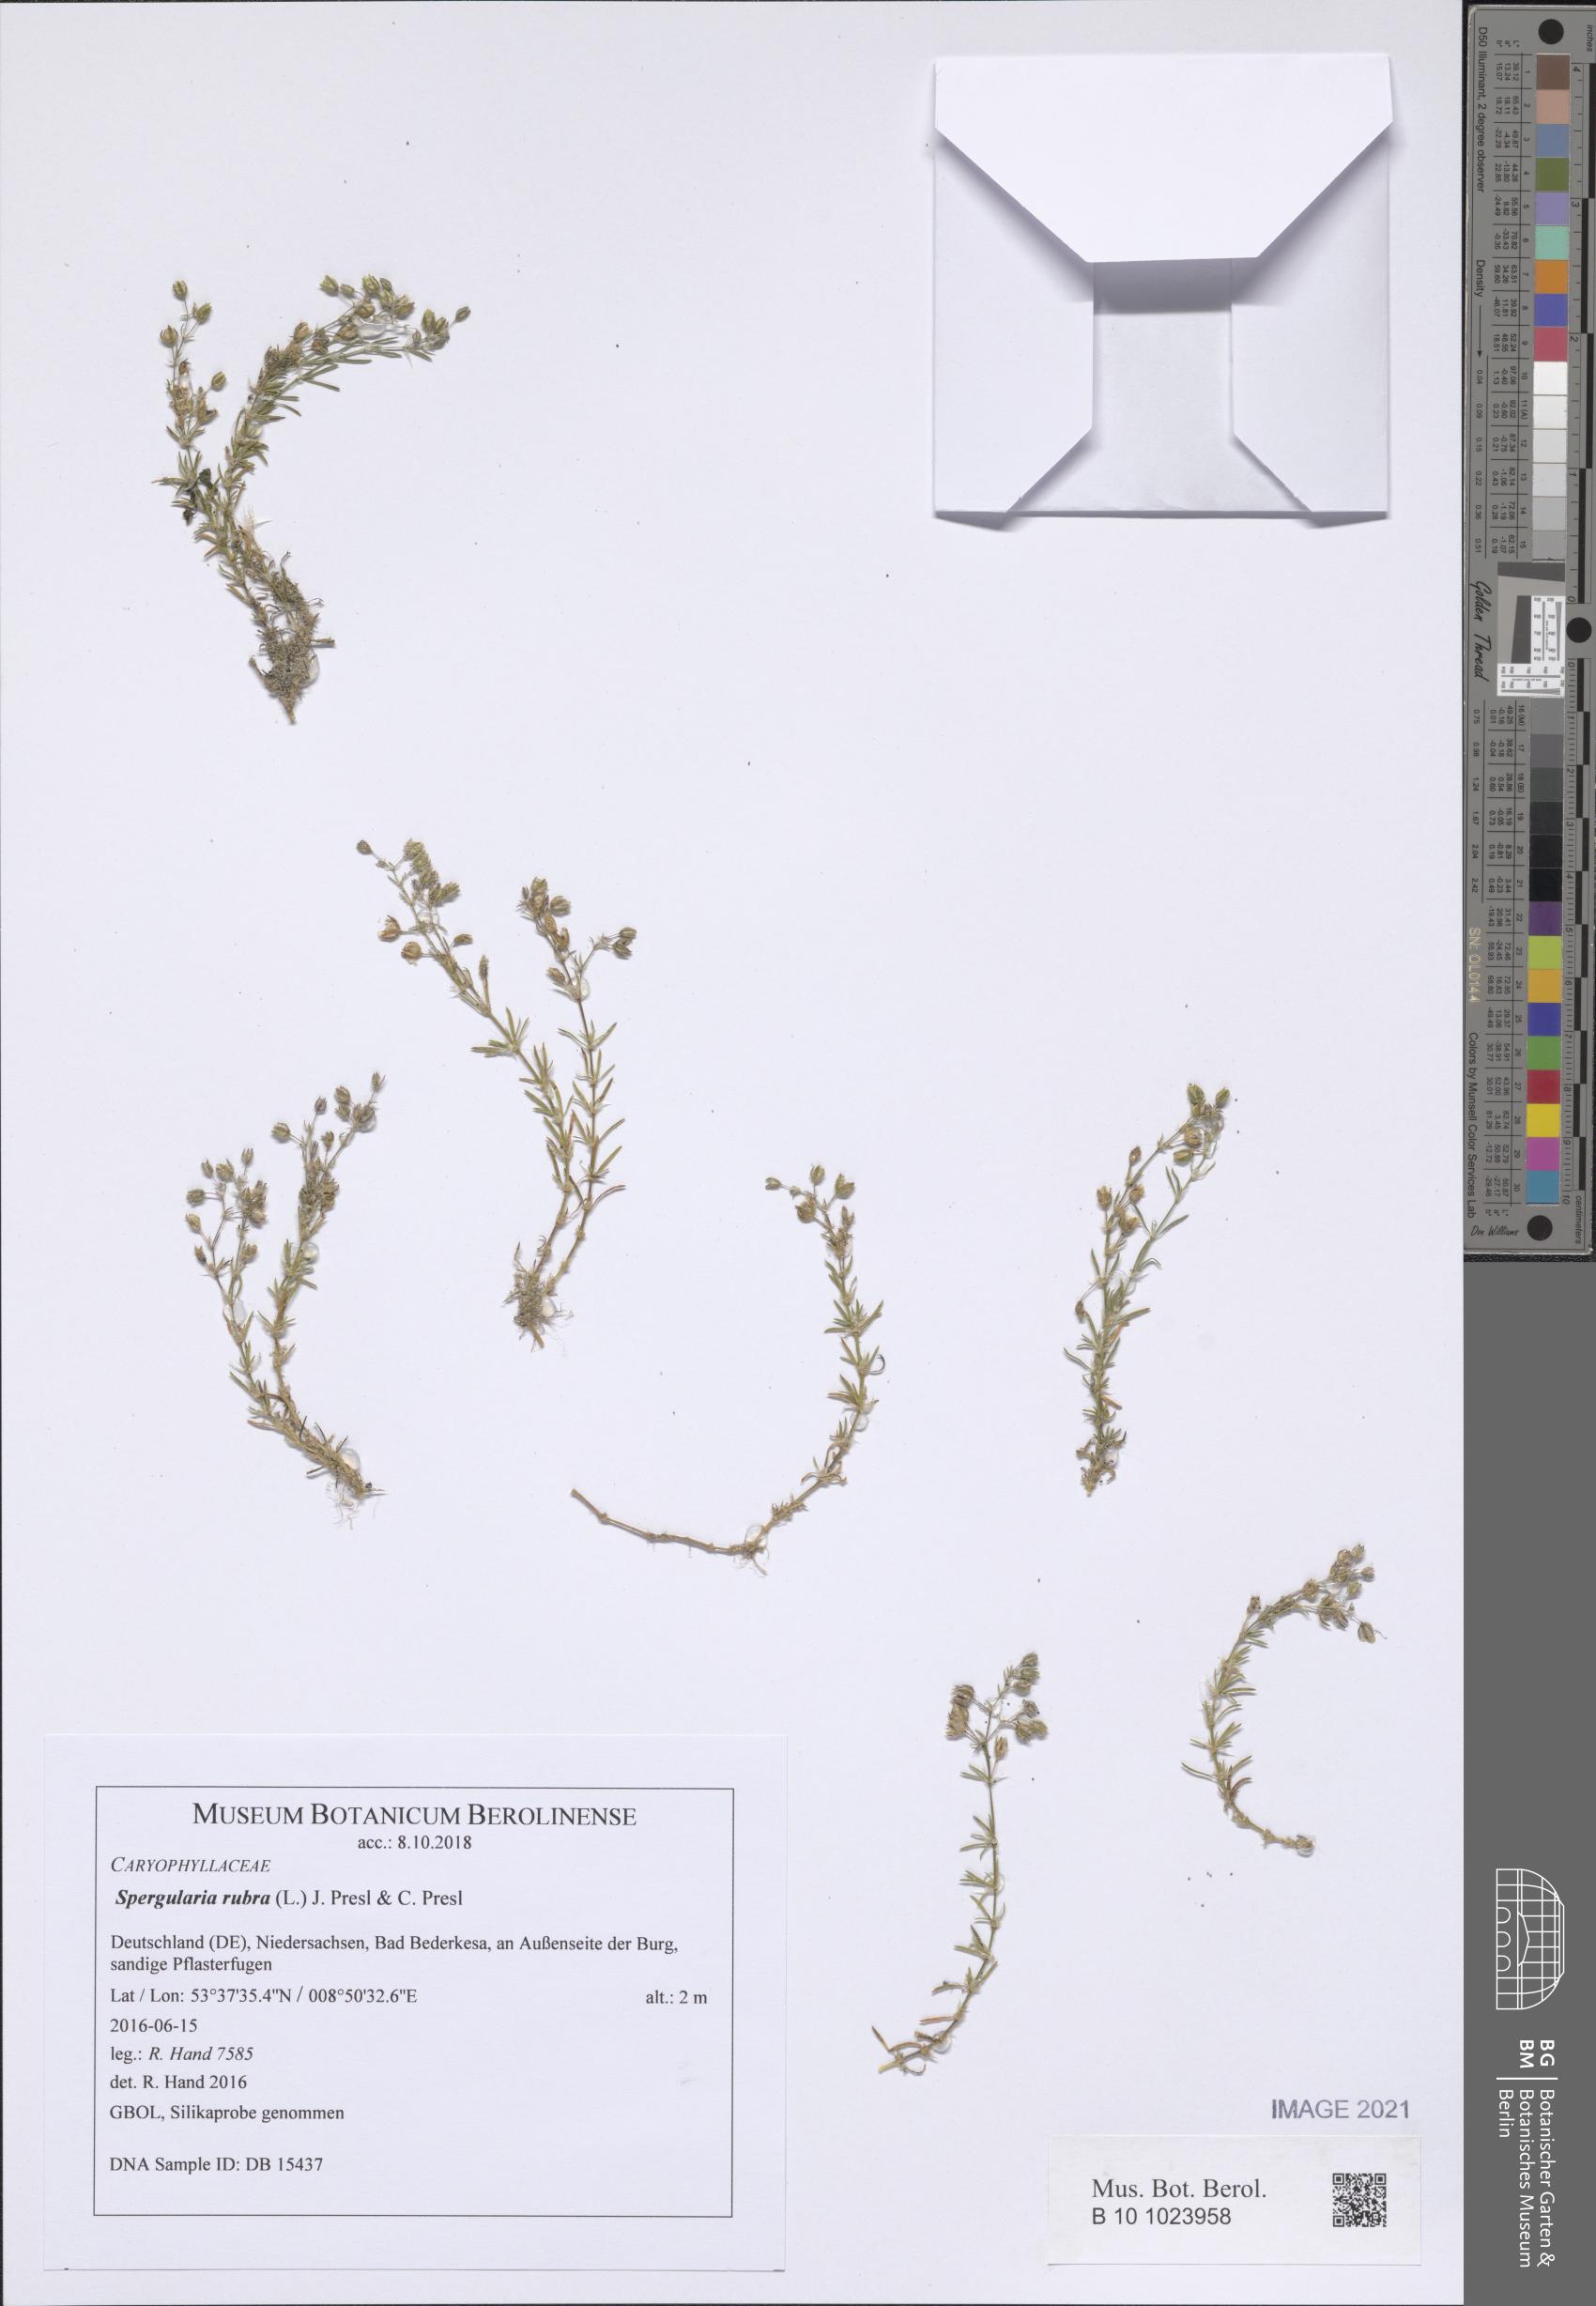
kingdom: Plantae
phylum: Tracheophyta
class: Magnoliopsida
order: Caryophyllales
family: Caryophyllaceae
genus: Spergularia
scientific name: Spergularia rubra
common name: Red sand-spurrey
